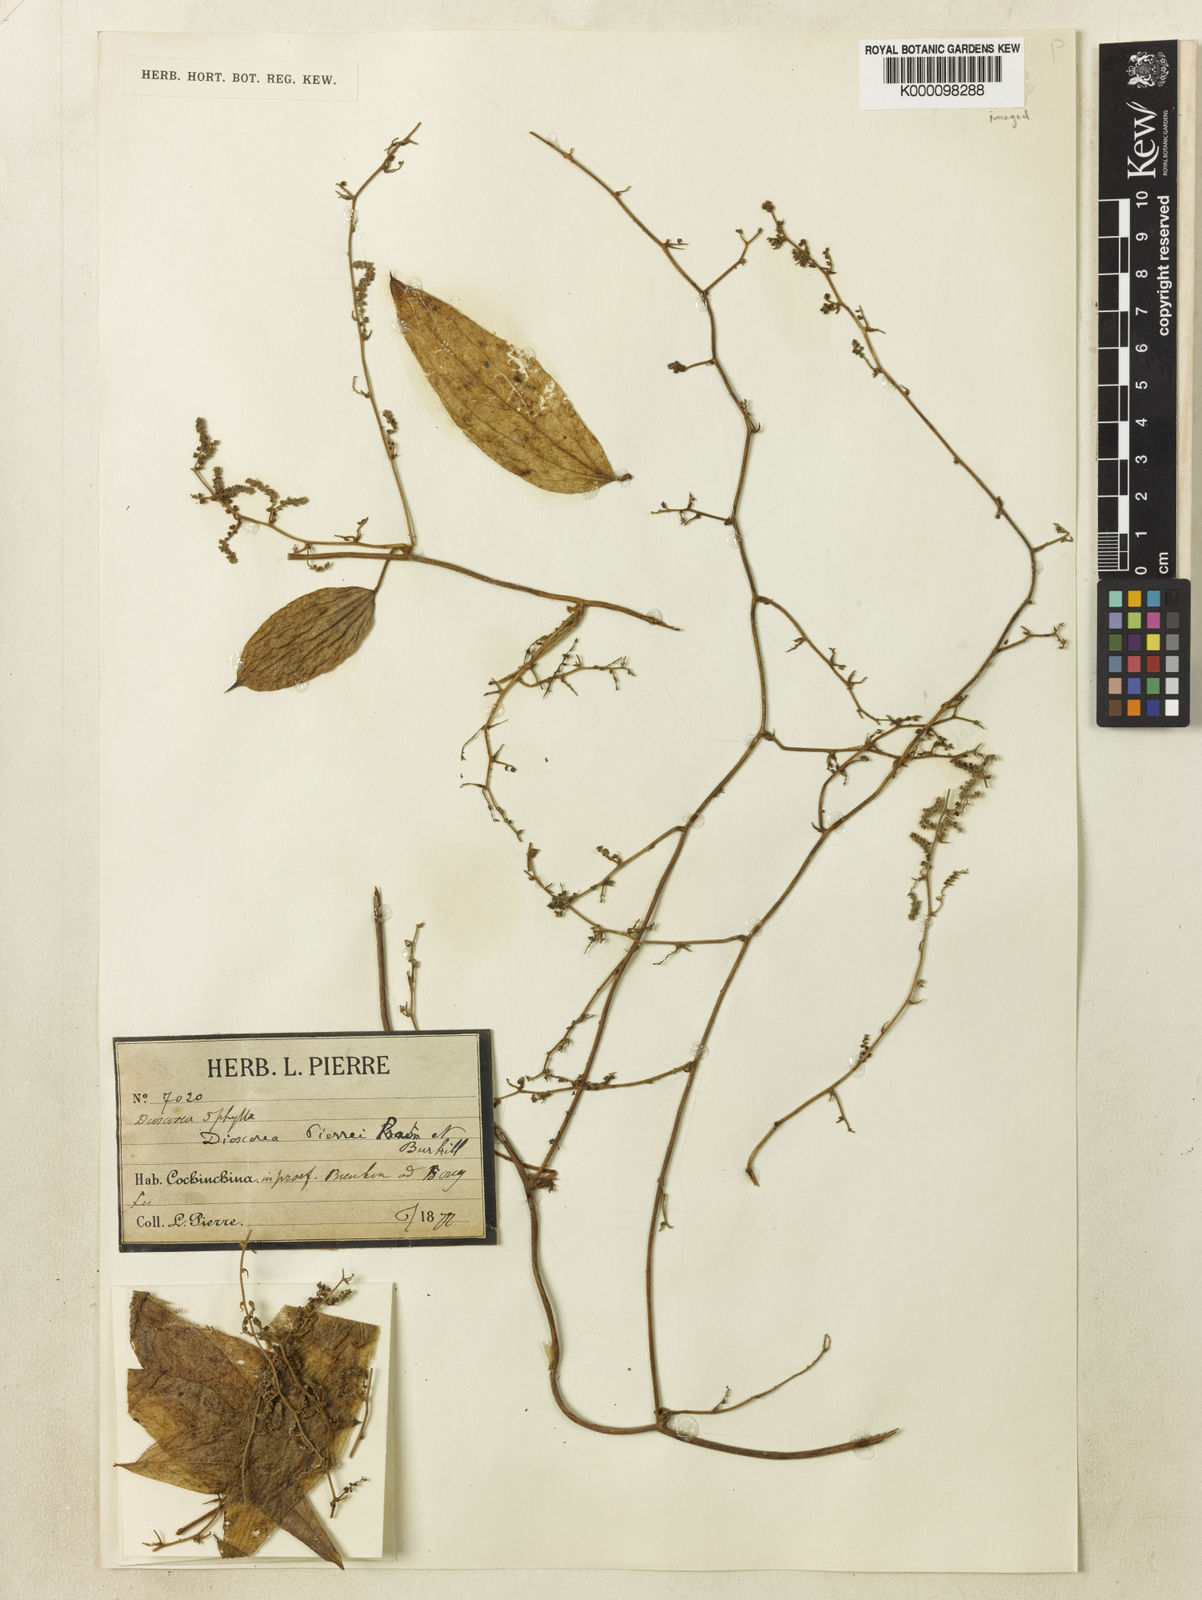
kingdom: Plantae
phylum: Tracheophyta
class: Liliopsida
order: Dioscoreales
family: Dioscoreaceae
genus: Dioscorea
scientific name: Dioscorea pierrei
